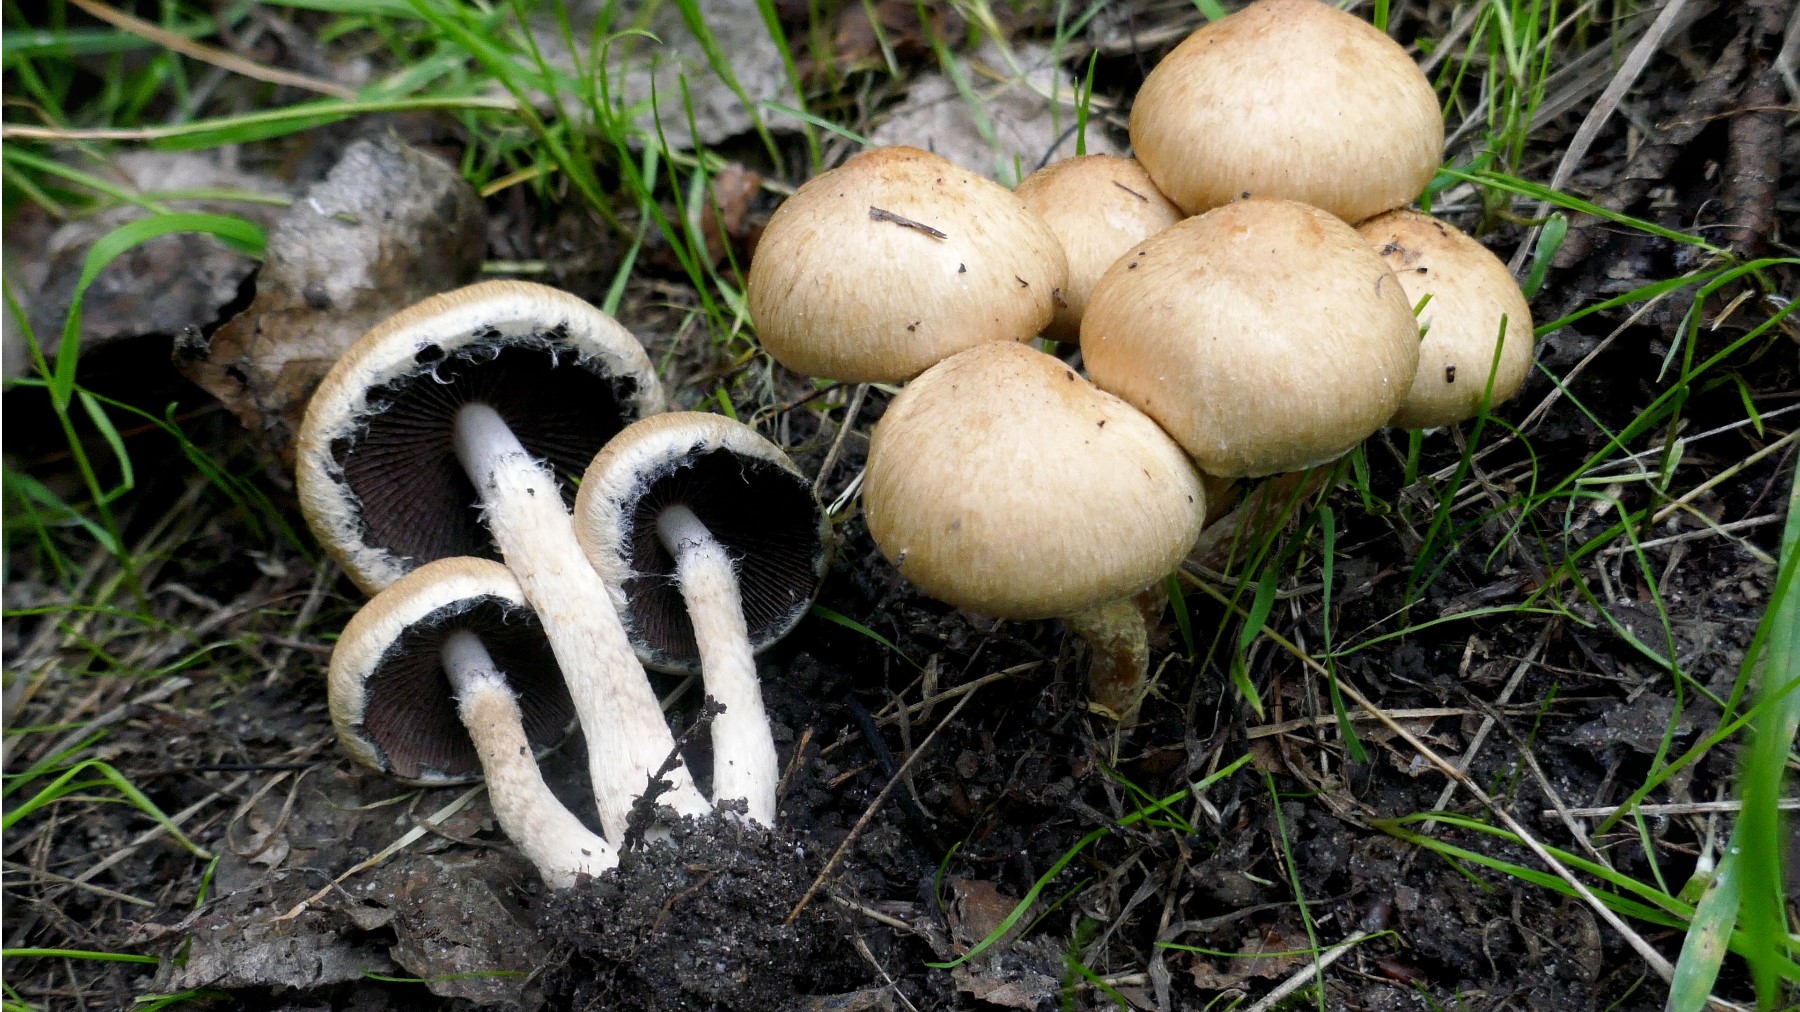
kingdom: Fungi
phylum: Basidiomycota
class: Agaricomycetes
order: Agaricales
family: Psathyrellaceae
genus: Lacrymaria
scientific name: Lacrymaria lacrymabunda
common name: grædende mørkhat
